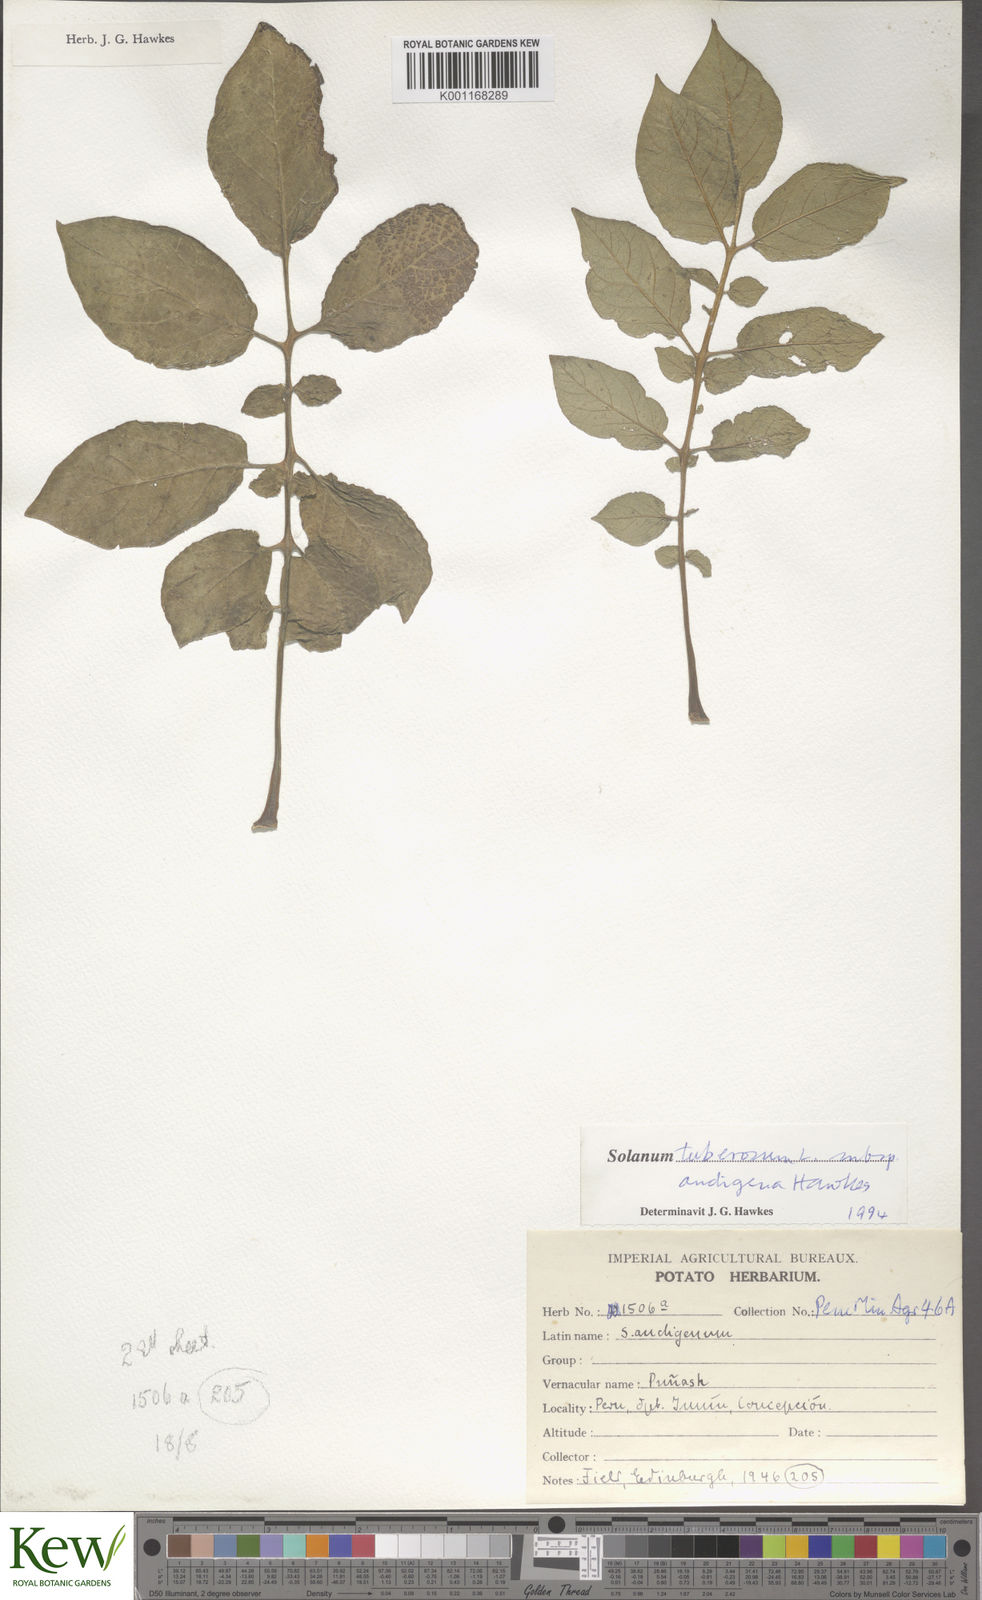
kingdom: Plantae
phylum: Tracheophyta
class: Magnoliopsida
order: Solanales
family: Solanaceae
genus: Solanum
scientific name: Solanum tuberosum
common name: Potato
